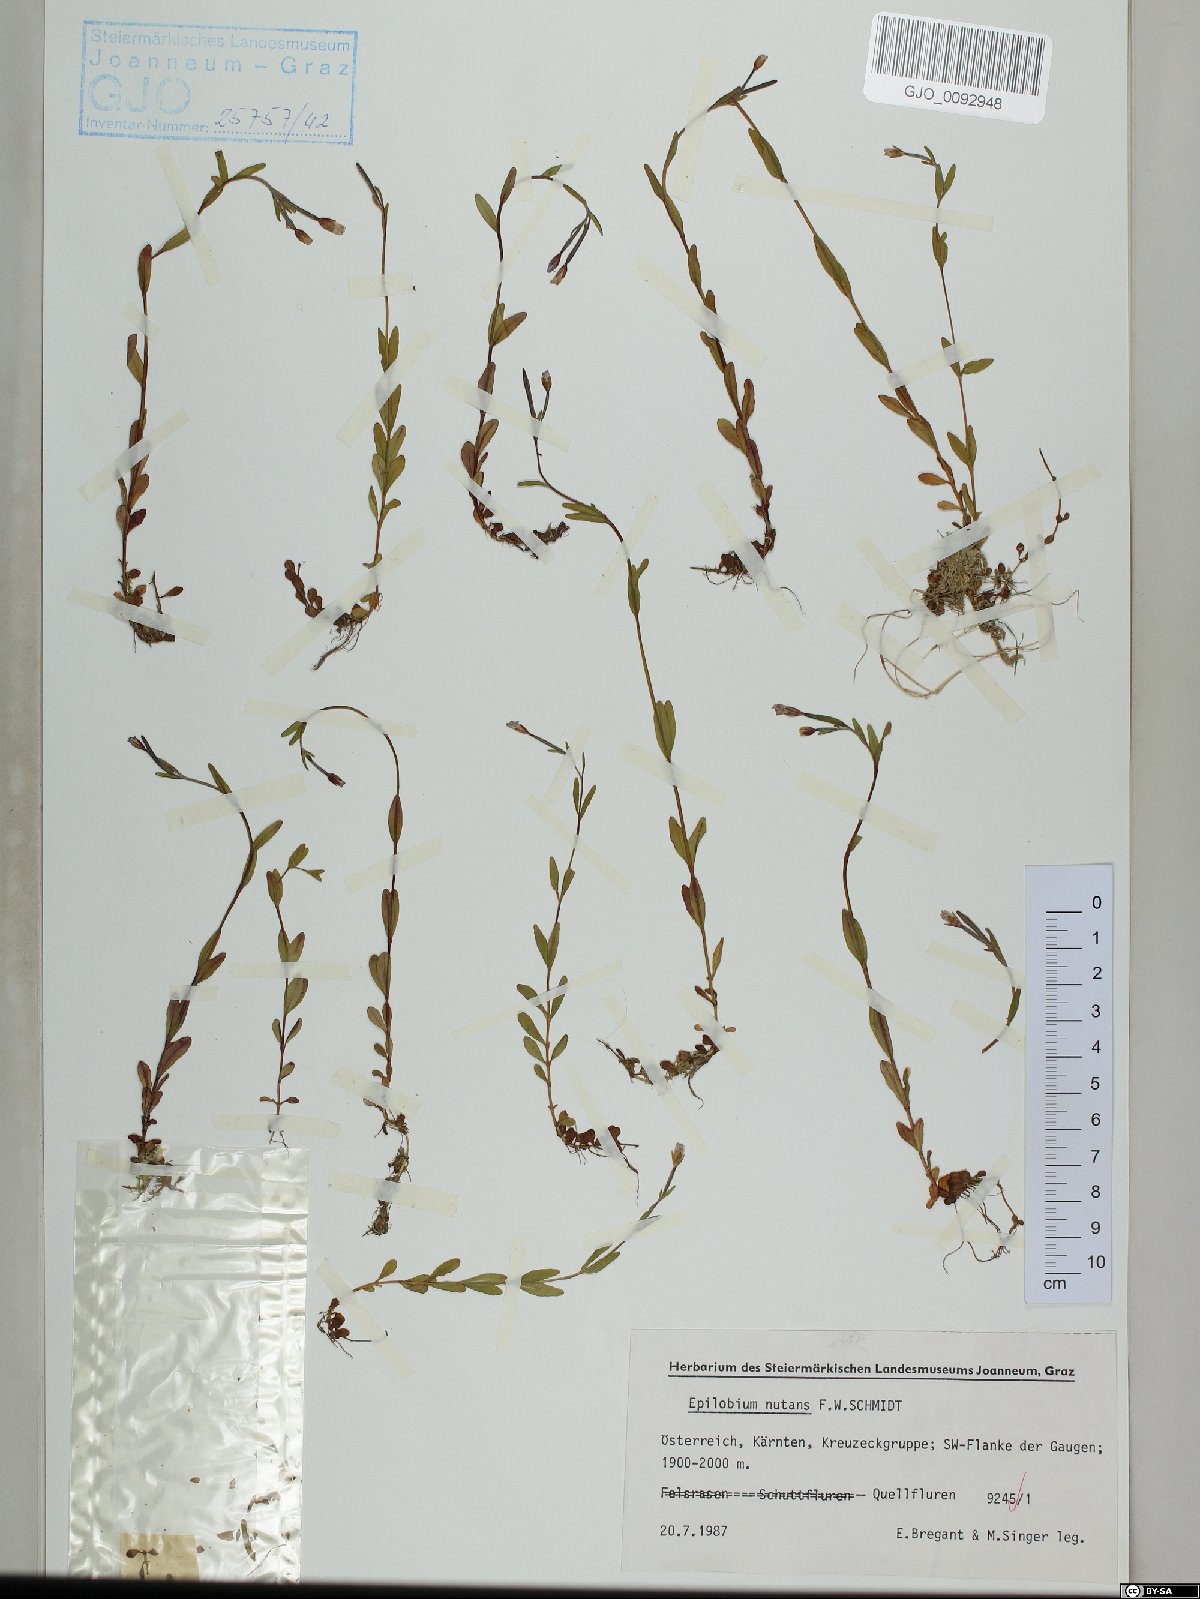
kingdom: Plantae
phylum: Tracheophyta
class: Magnoliopsida
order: Myrtales
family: Onagraceae
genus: Epilobium
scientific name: Epilobium nutans
